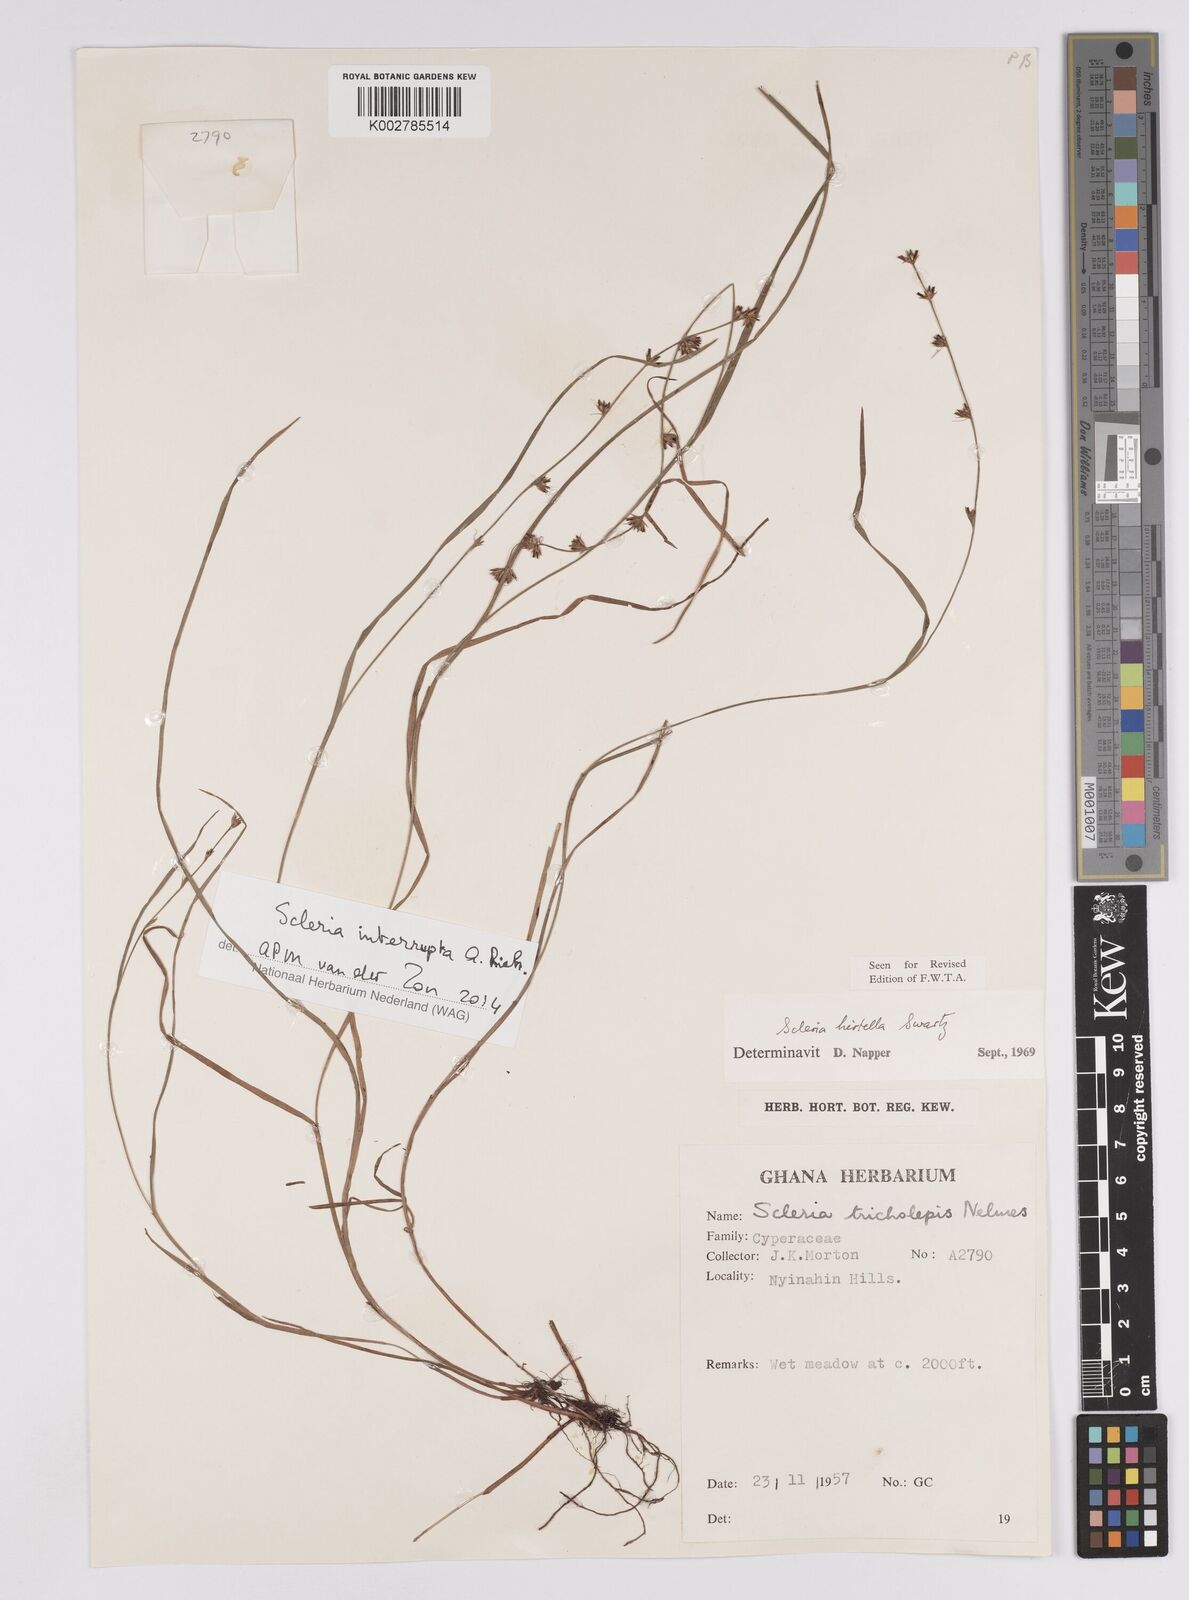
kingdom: Plantae
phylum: Tracheophyta
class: Liliopsida
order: Poales
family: Cyperaceae
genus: Scleria
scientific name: Scleria tricholepis
